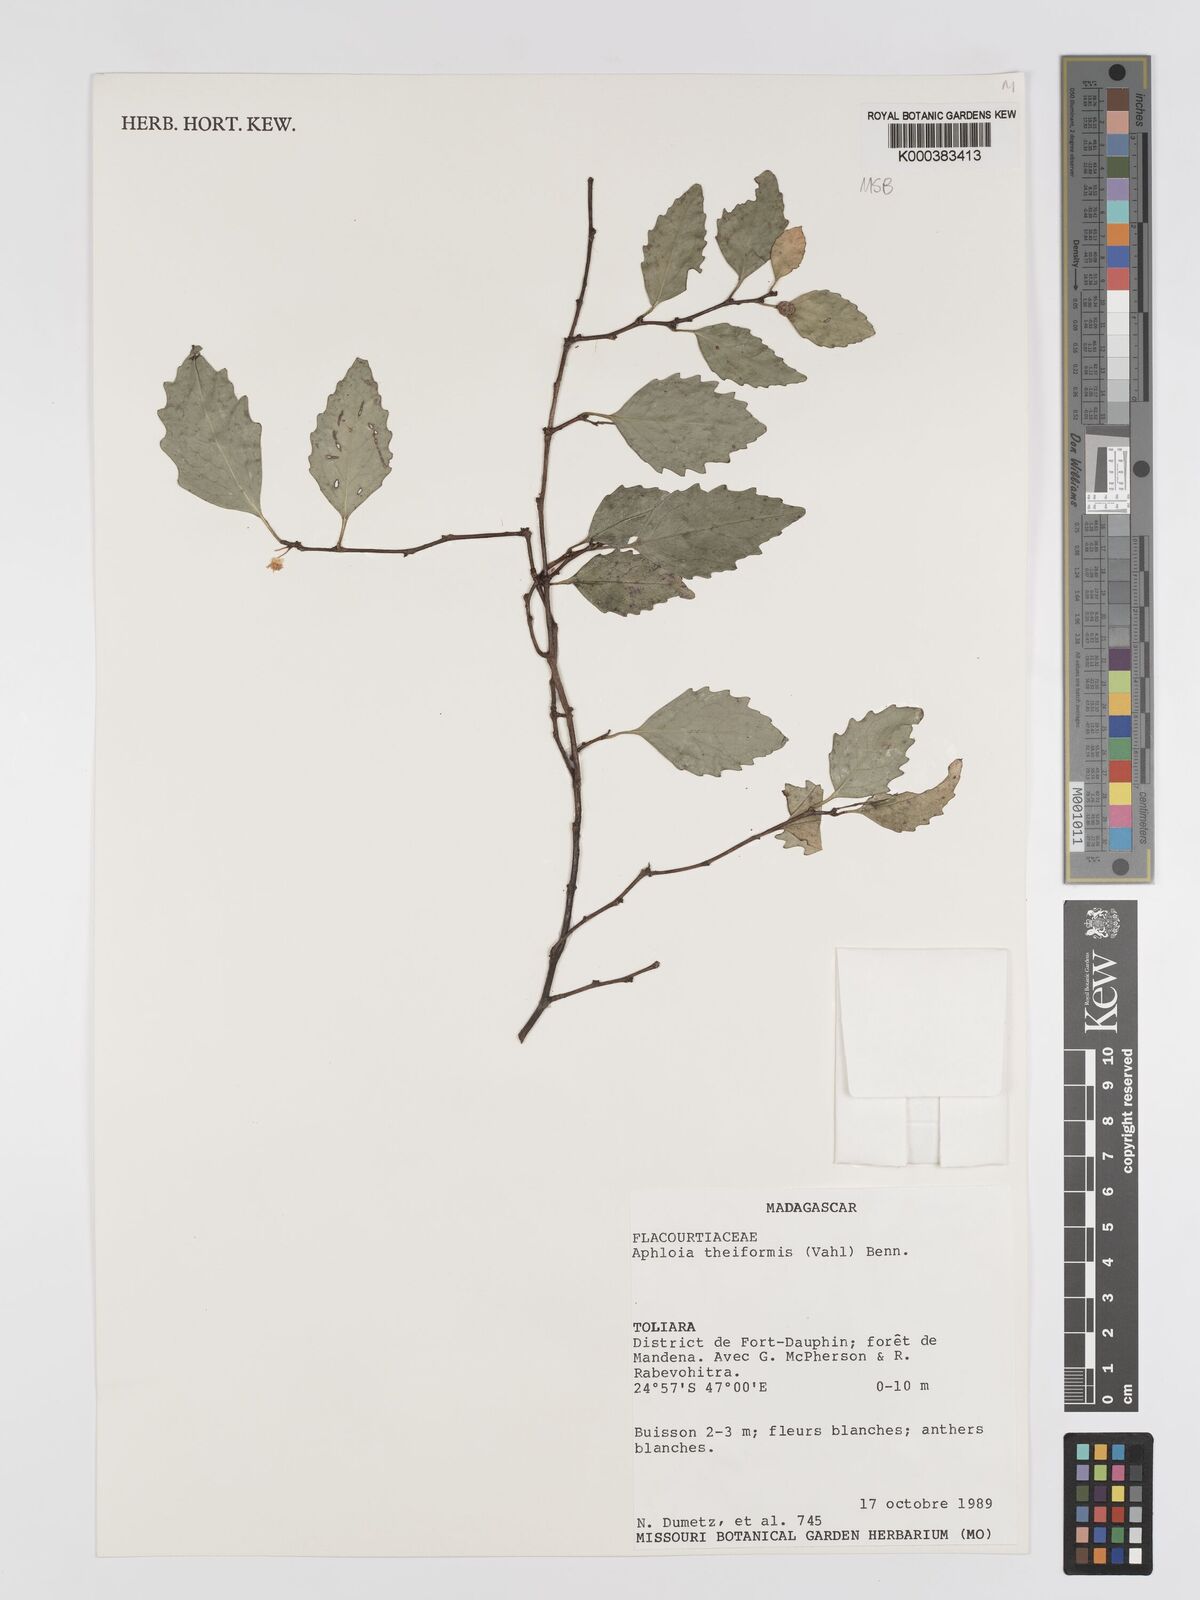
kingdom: Plantae
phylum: Tracheophyta
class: Magnoliopsida
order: Crossosomatales
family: Aphloiaceae
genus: Aphloia
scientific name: Aphloia theiformis
